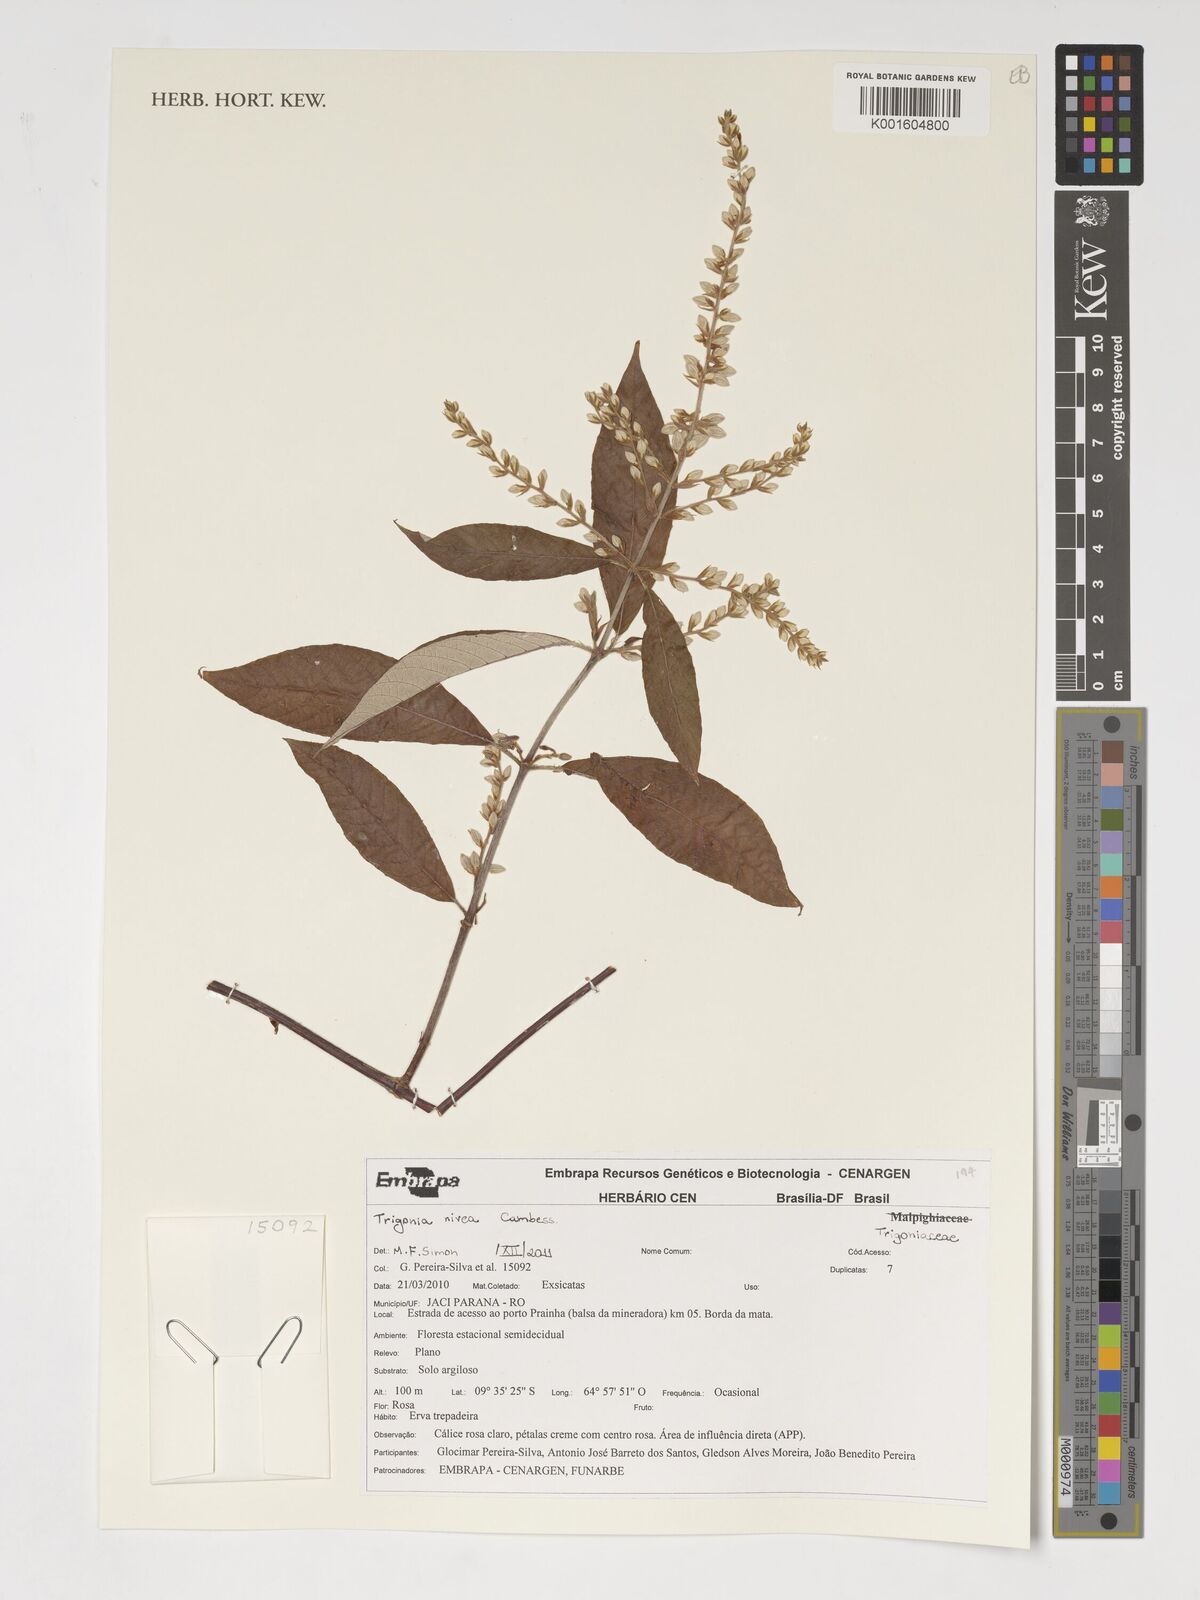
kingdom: Plantae
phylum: Tracheophyta
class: Magnoliopsida
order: Malpighiales
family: Trigoniaceae
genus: Trigonia
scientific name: Trigonia nivea
